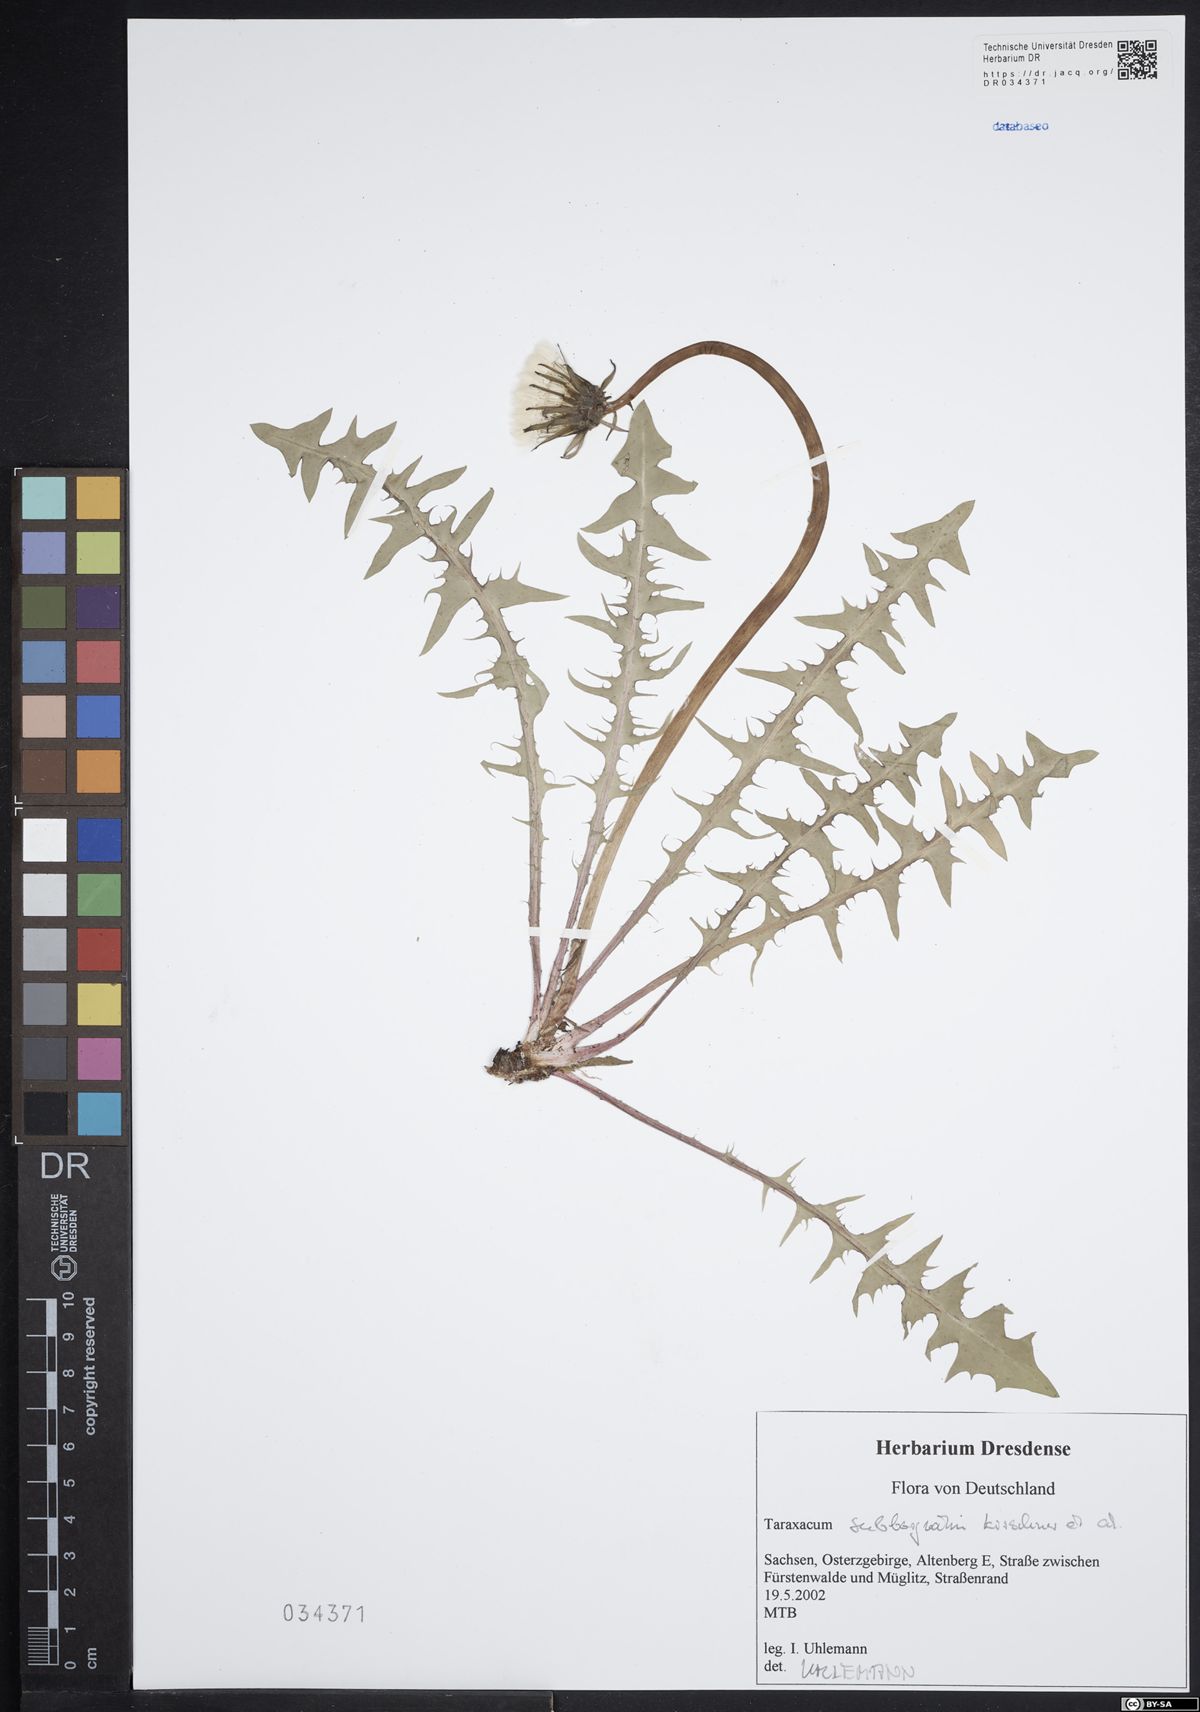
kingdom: Plantae
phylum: Tracheophyta
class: Magnoliopsida
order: Asterales
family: Asteraceae
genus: Taraxacum
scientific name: Taraxacum subborgvallii
